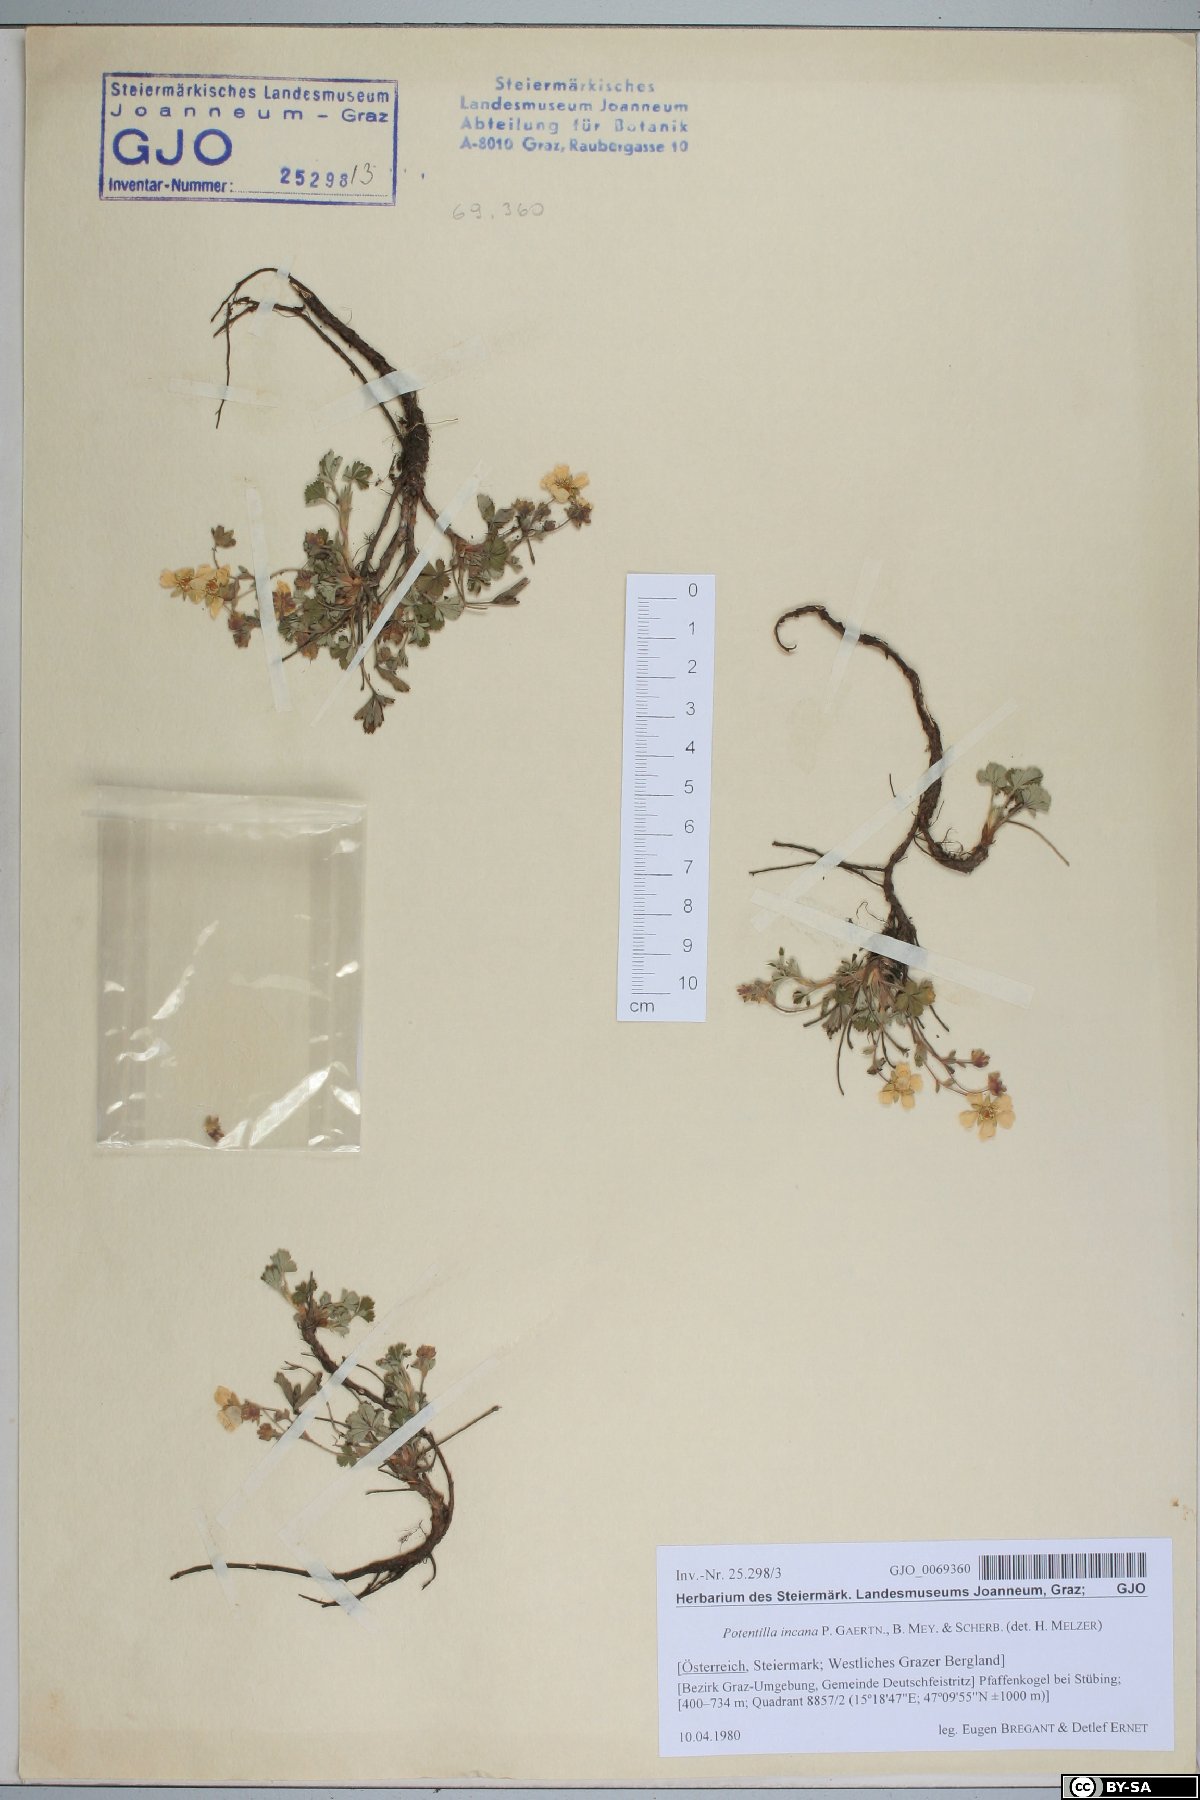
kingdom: Plantae
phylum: Tracheophyta
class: Magnoliopsida
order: Rosales
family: Rosaceae
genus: Potentilla
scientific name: Potentilla cinerea
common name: Ashy cinquefoil
